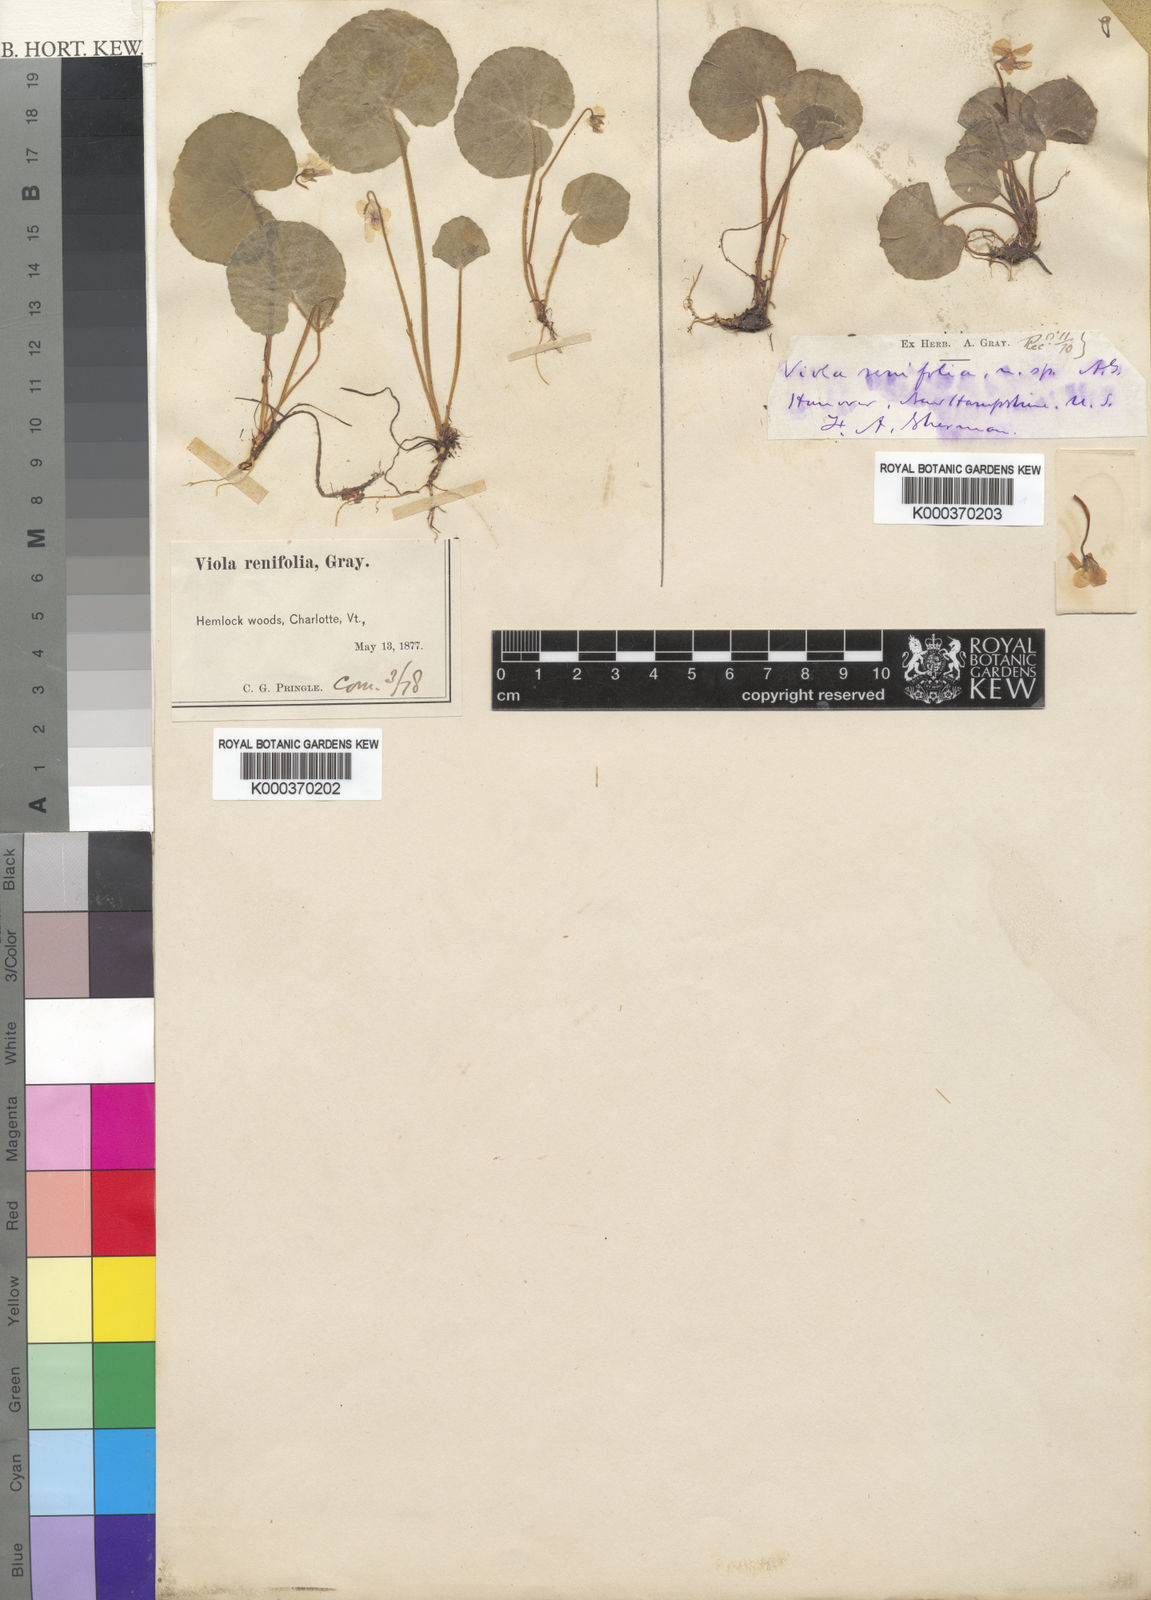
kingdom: Plantae
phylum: Tracheophyta
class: Magnoliopsida
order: Malpighiales
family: Violaceae
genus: Viola
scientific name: Viola renifolia
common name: Kidney-leaf violet
